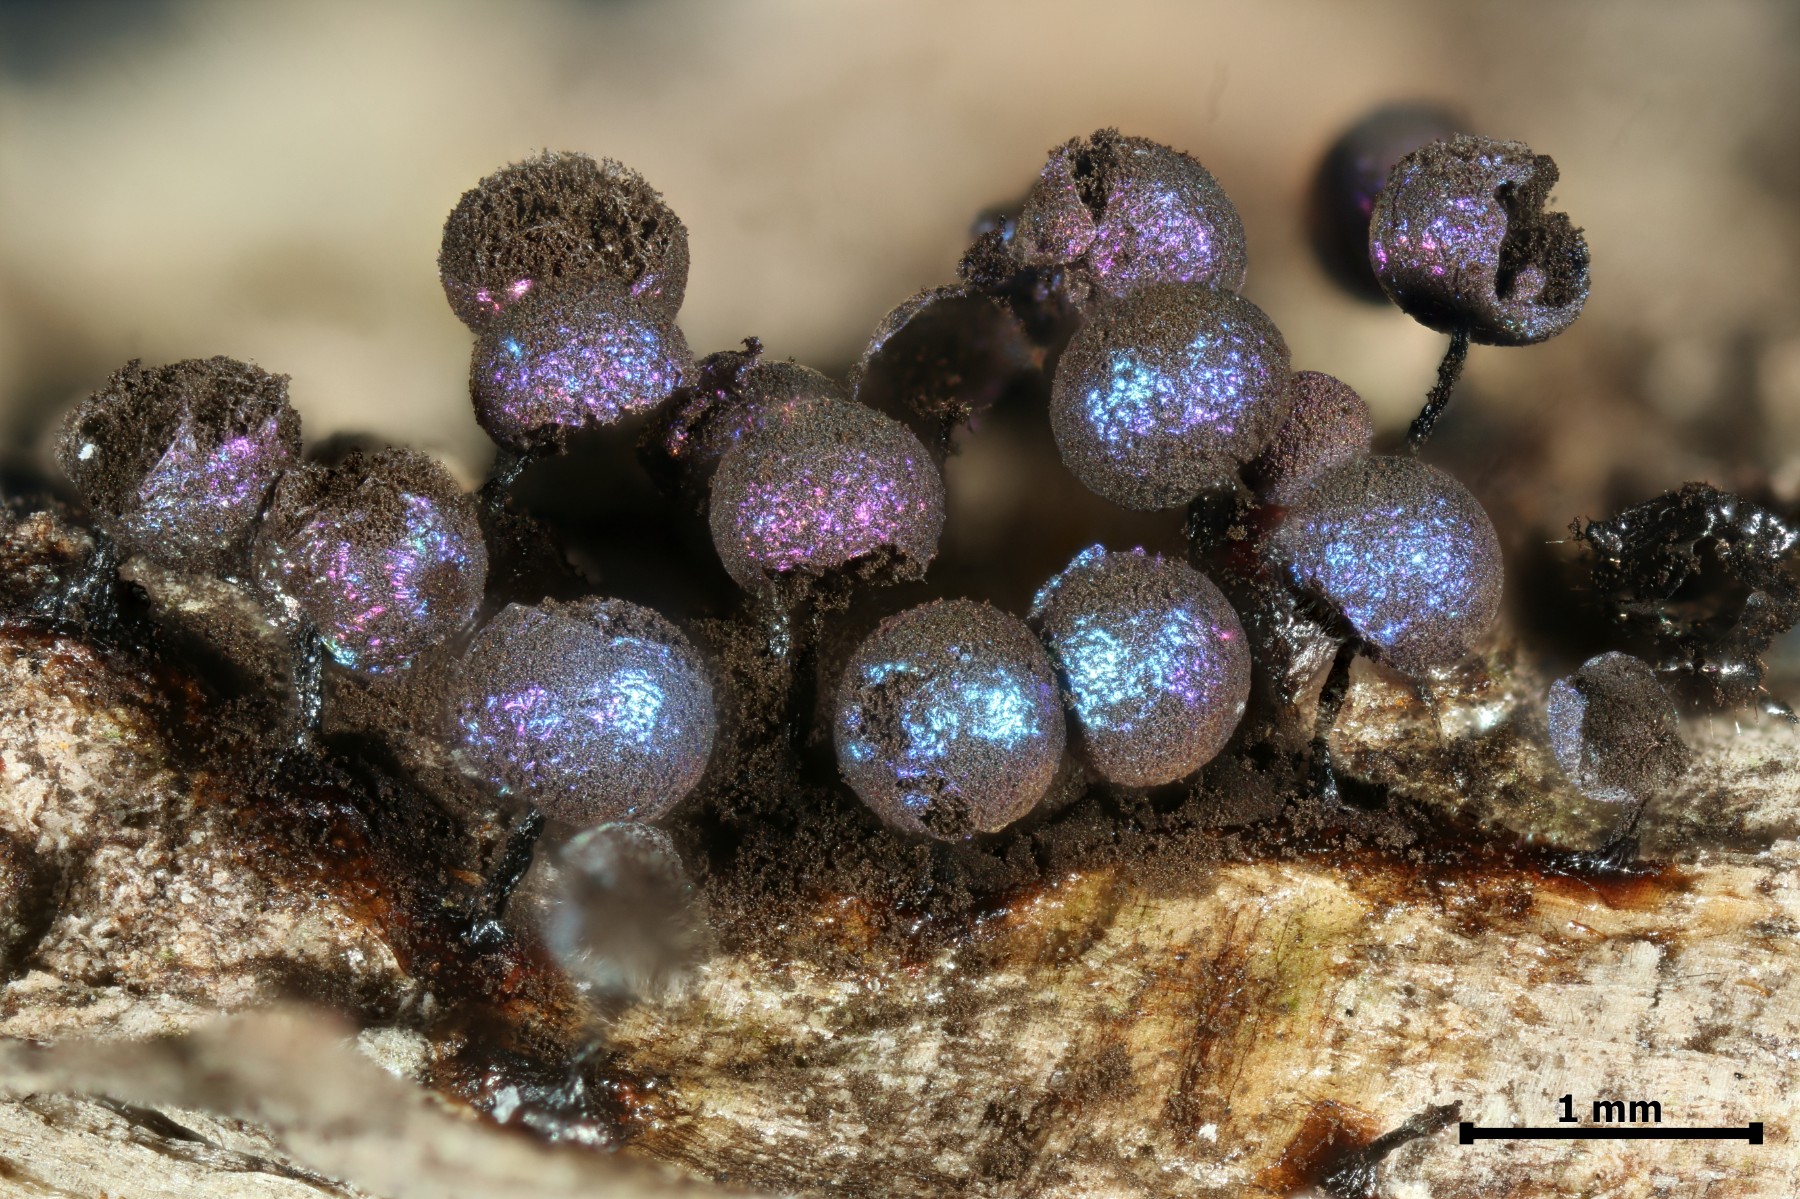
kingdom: Protozoa
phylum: Mycetozoa
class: Myxomycetes
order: Stemonitidales
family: Stemonitidaceae
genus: Lamproderma
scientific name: Lamproderma arcyrioides
